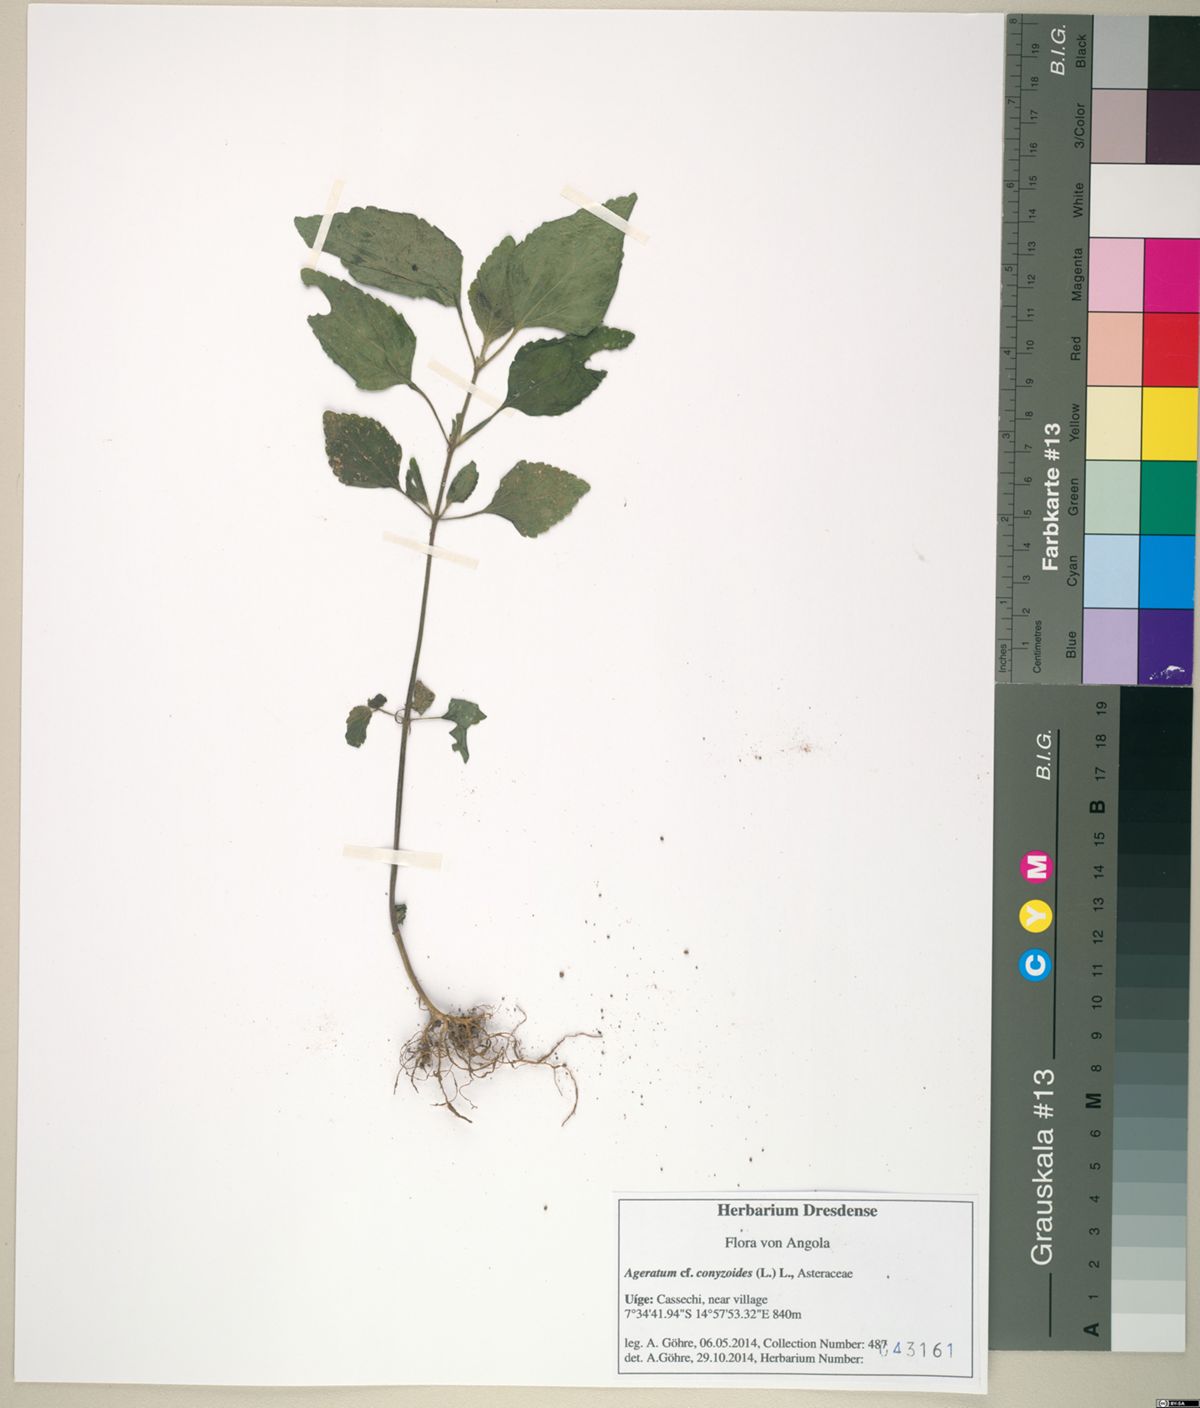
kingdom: Plantae
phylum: Tracheophyta
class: Magnoliopsida
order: Asterales
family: Asteraceae
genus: Ageratum
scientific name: Ageratum conyzoides
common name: Tropical whiteweed
